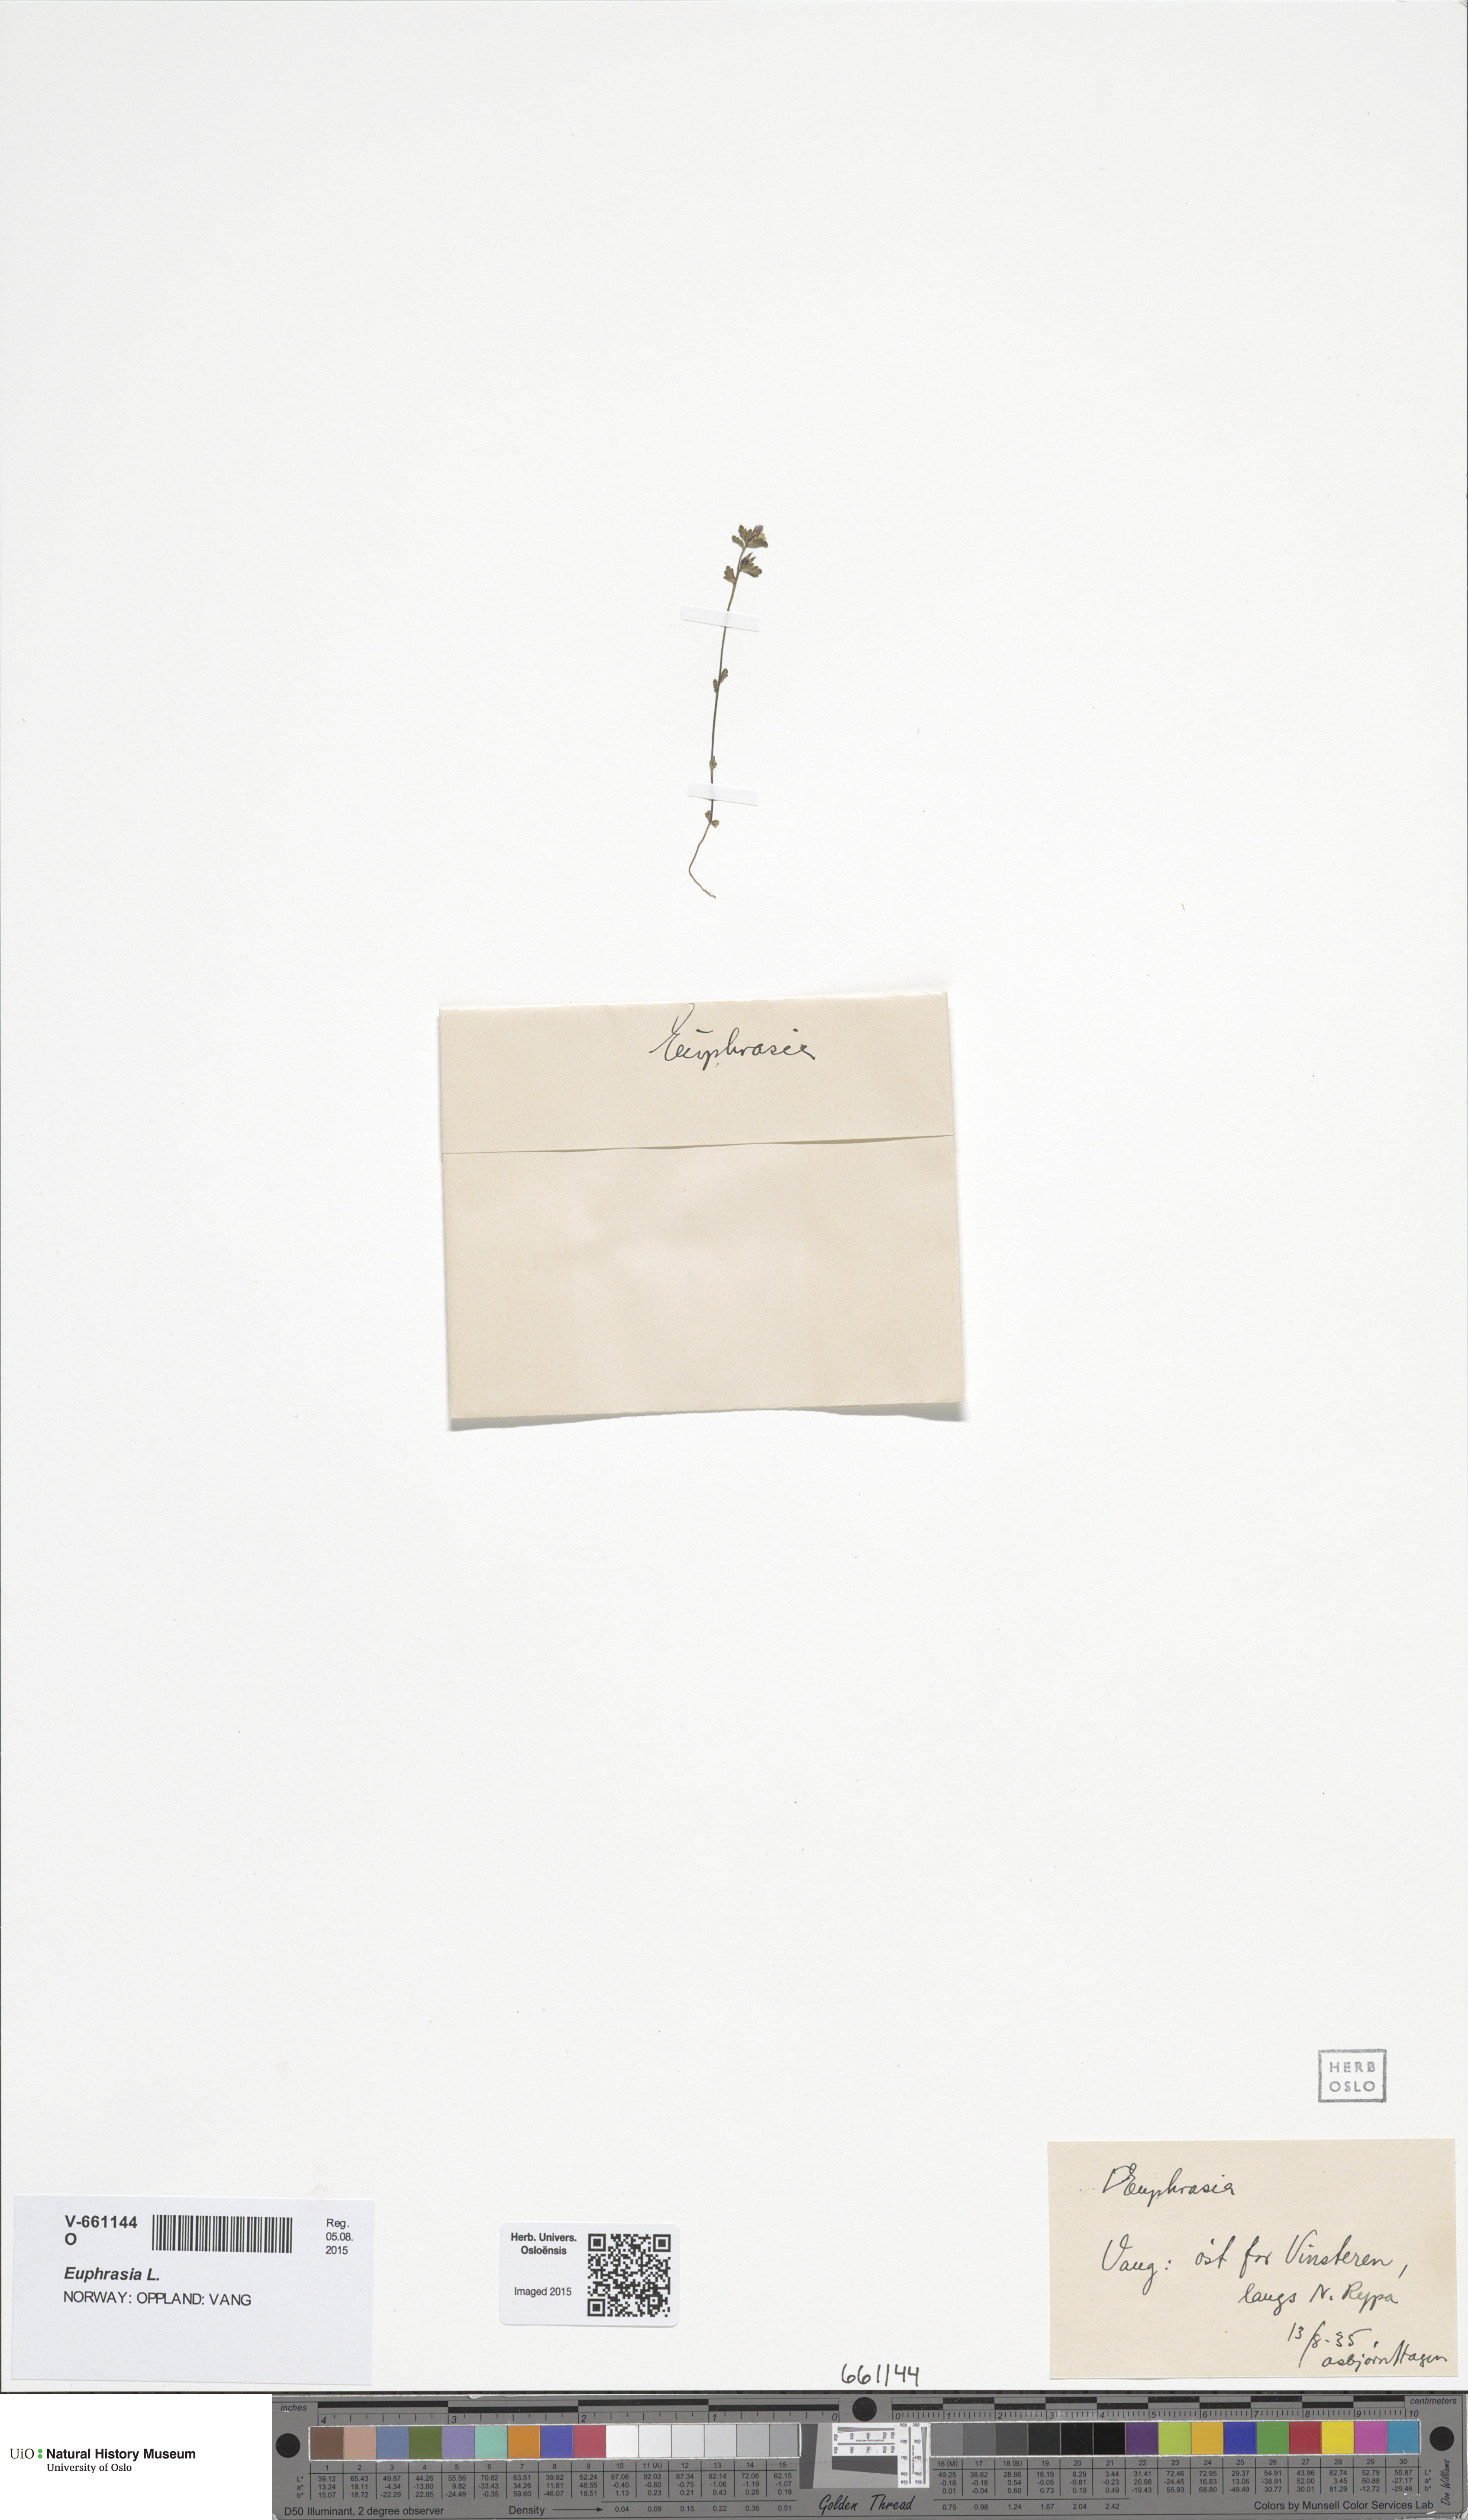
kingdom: Plantae
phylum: Tracheophyta
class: Magnoliopsida
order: Lamiales
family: Orobanchaceae
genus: Euphrasia
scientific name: Euphrasia wettsteinii
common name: Wettstein's eyebright
